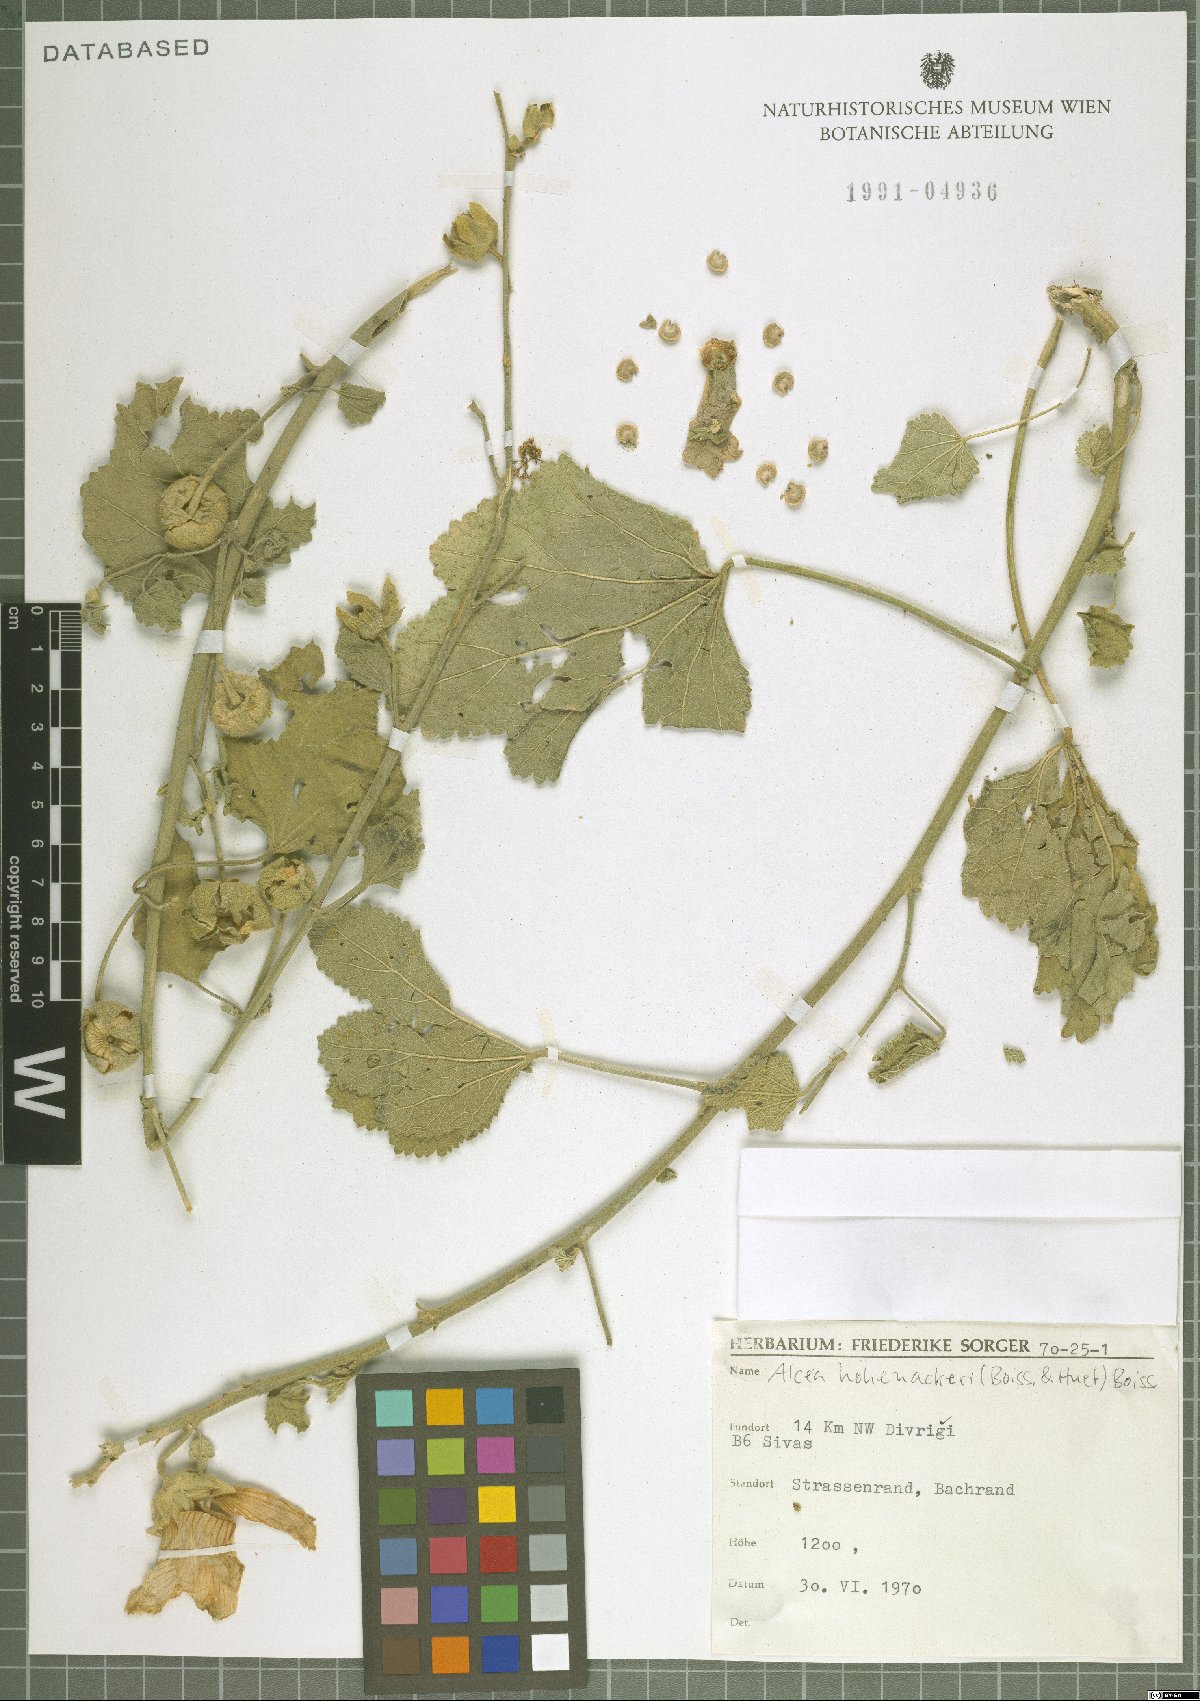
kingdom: Plantae
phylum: Tracheophyta
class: Magnoliopsida
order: Malvales
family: Malvaceae
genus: Alcea
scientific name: Alcea kurdica
